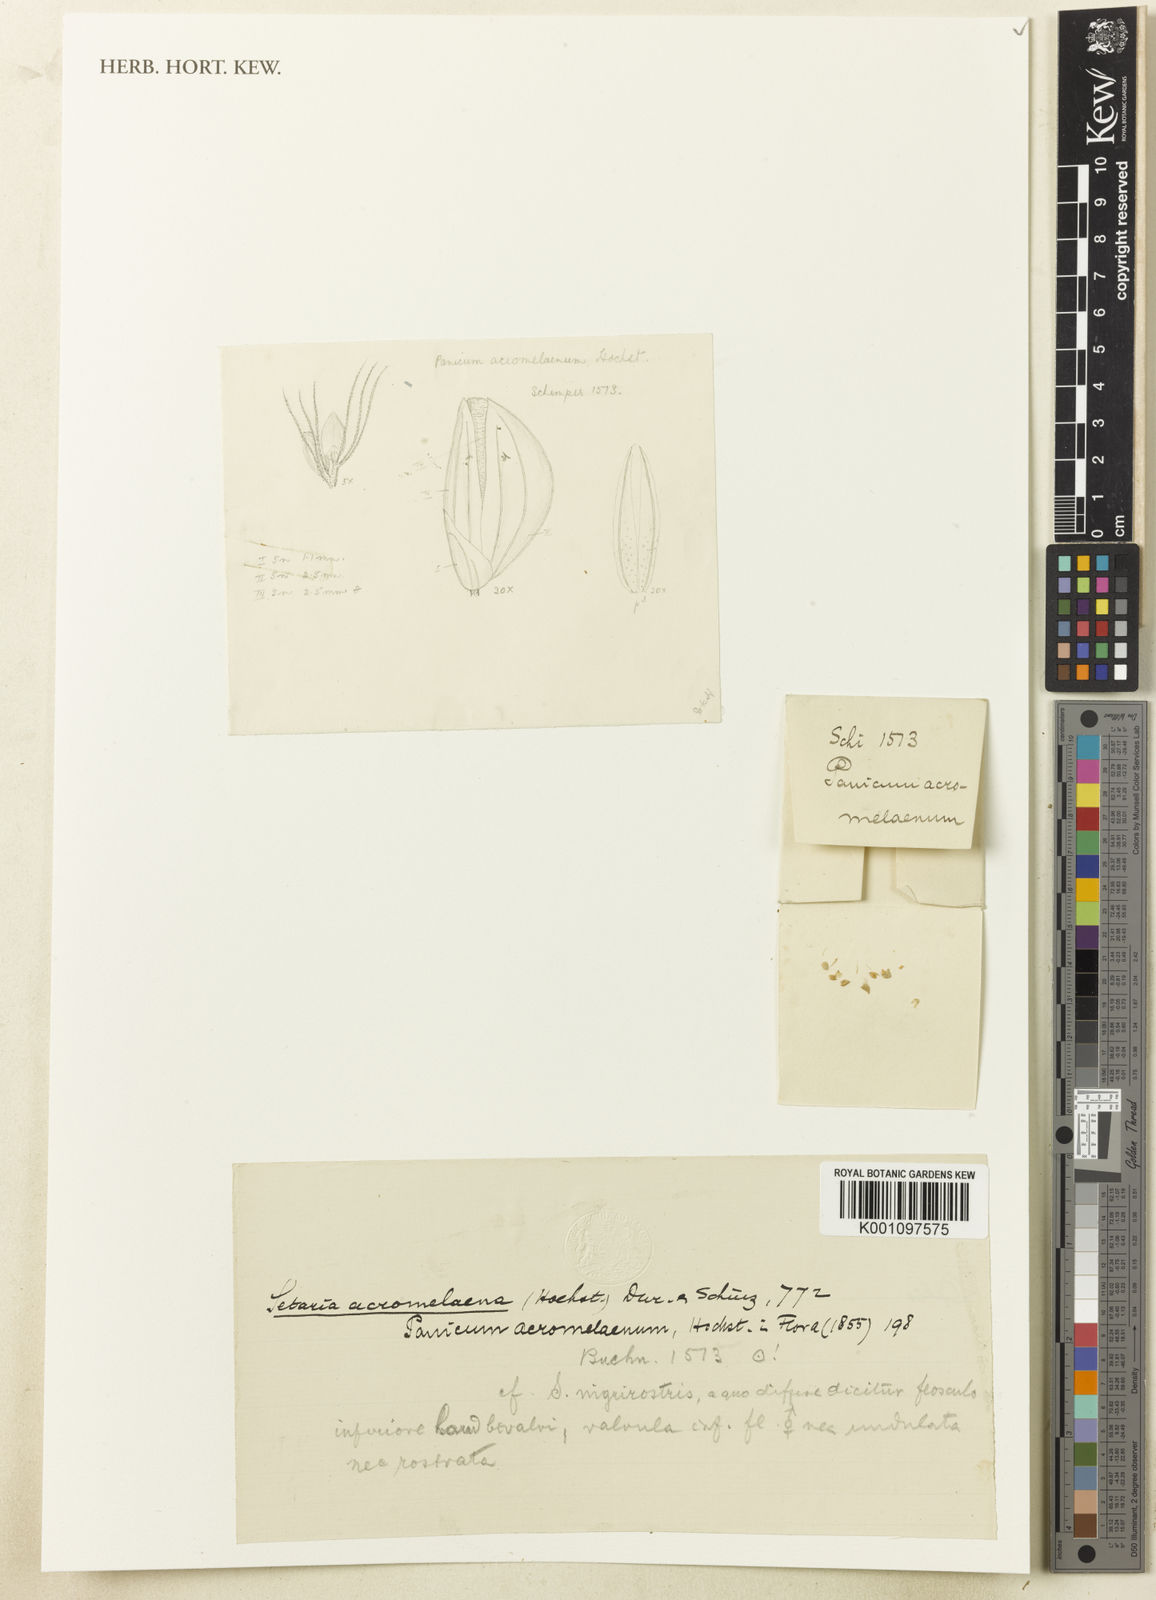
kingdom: Plantae
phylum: Tracheophyta
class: Liliopsida
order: Poales
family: Poaceae
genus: Setaria
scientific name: Setaria nigrirostris
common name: Black bristlegrass
